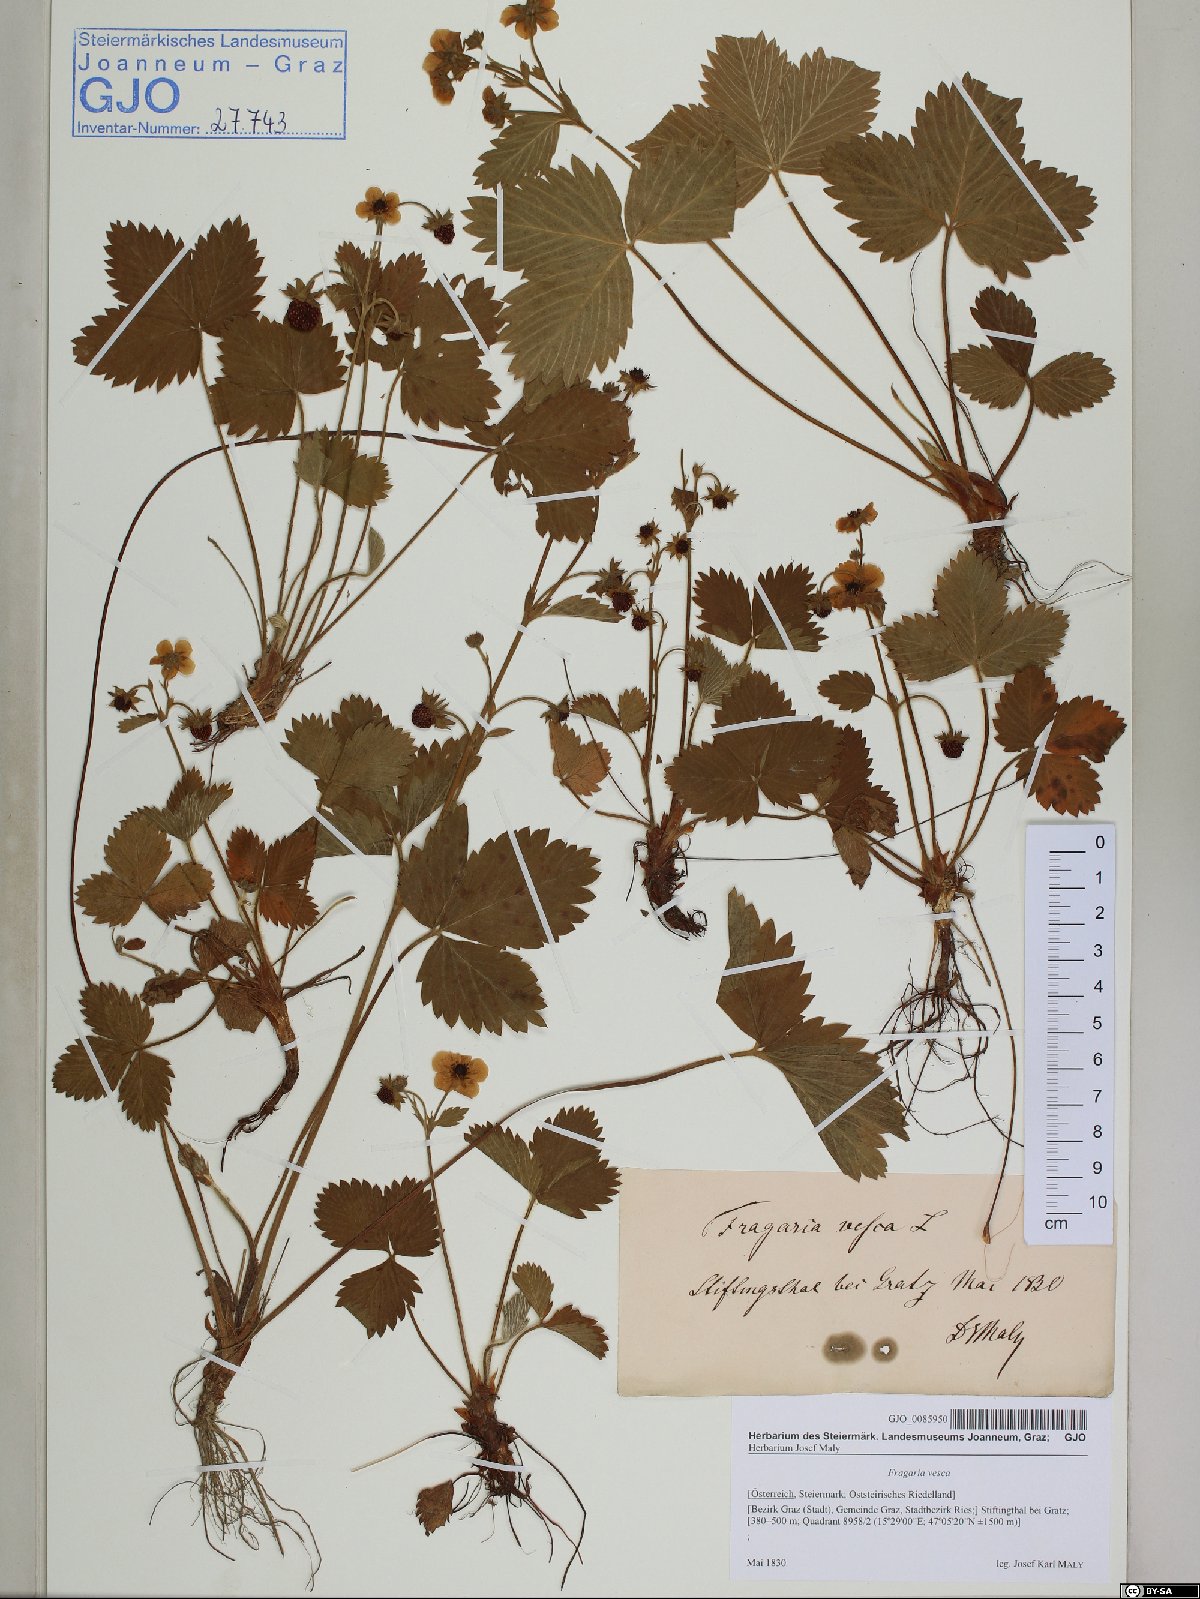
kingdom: Plantae
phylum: Tracheophyta
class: Magnoliopsida
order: Rosales
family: Rosaceae
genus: Fragaria
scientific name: Fragaria vesca
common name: Wild strawberry
